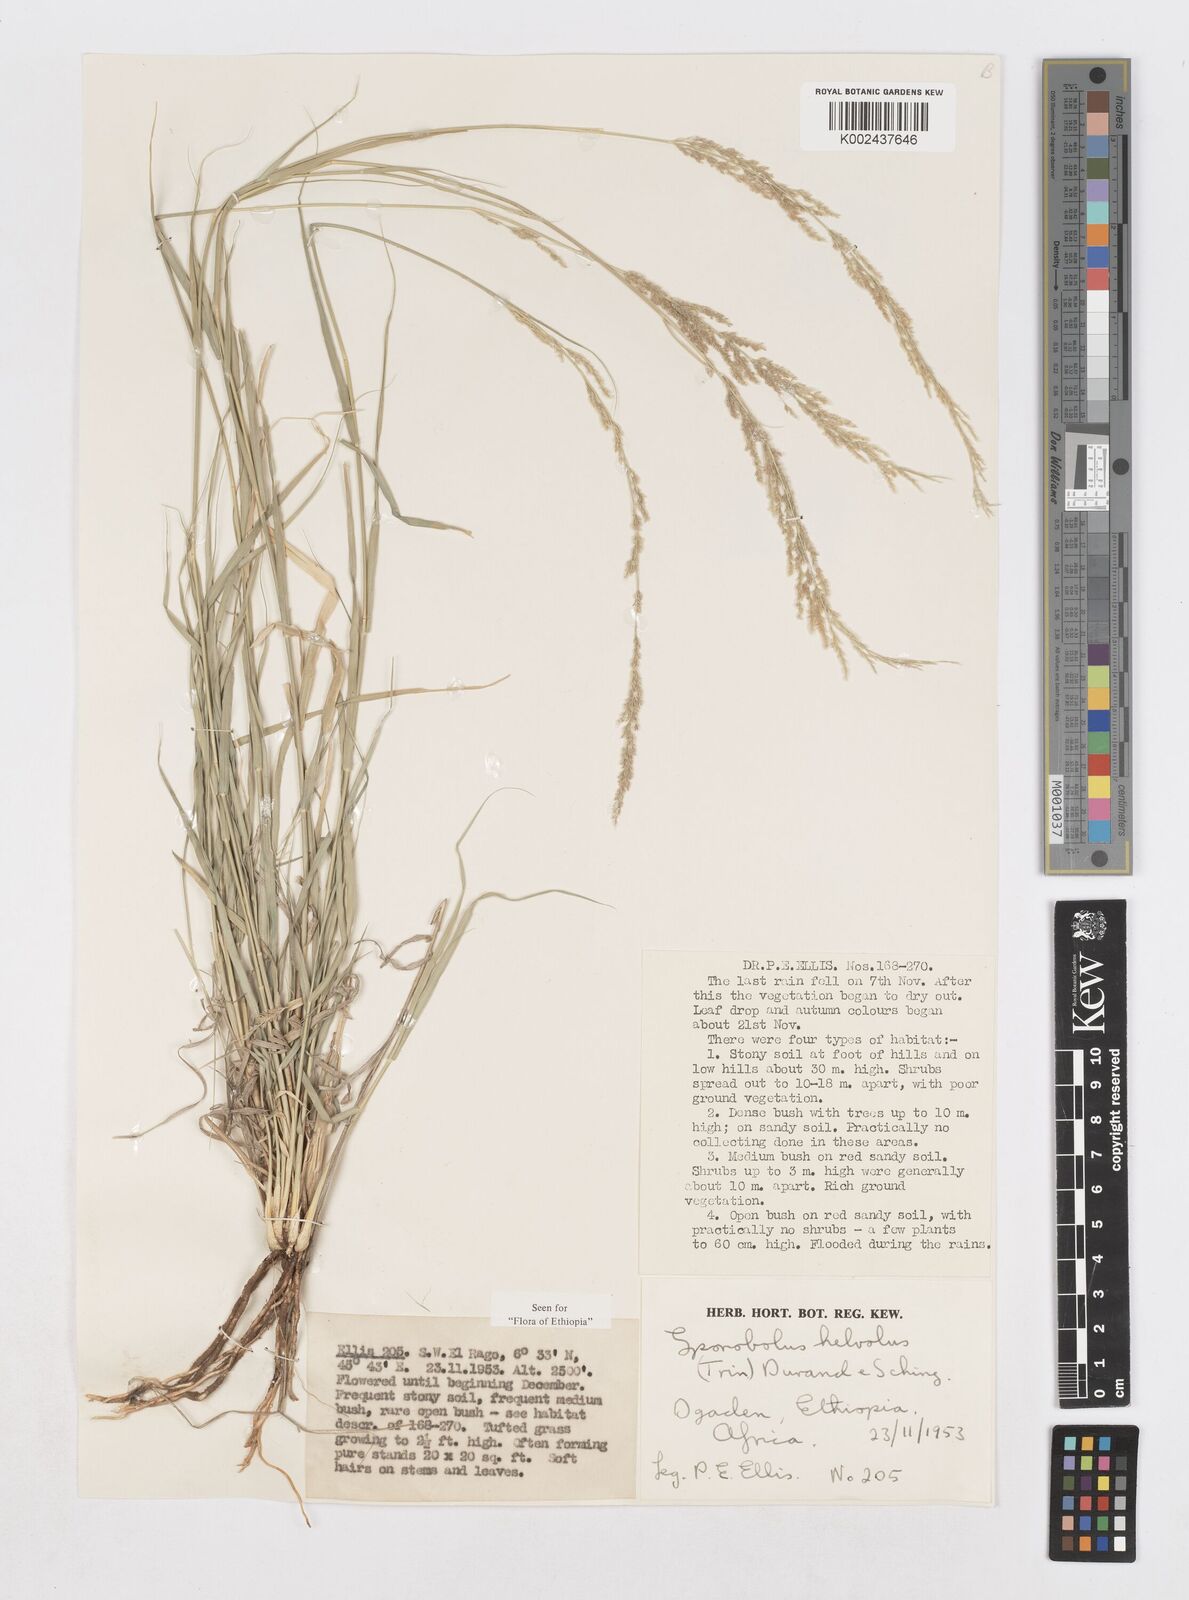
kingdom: Plantae
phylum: Tracheophyta
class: Liliopsida
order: Poales
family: Poaceae
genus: Sporobolus
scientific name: Sporobolus helvolus
